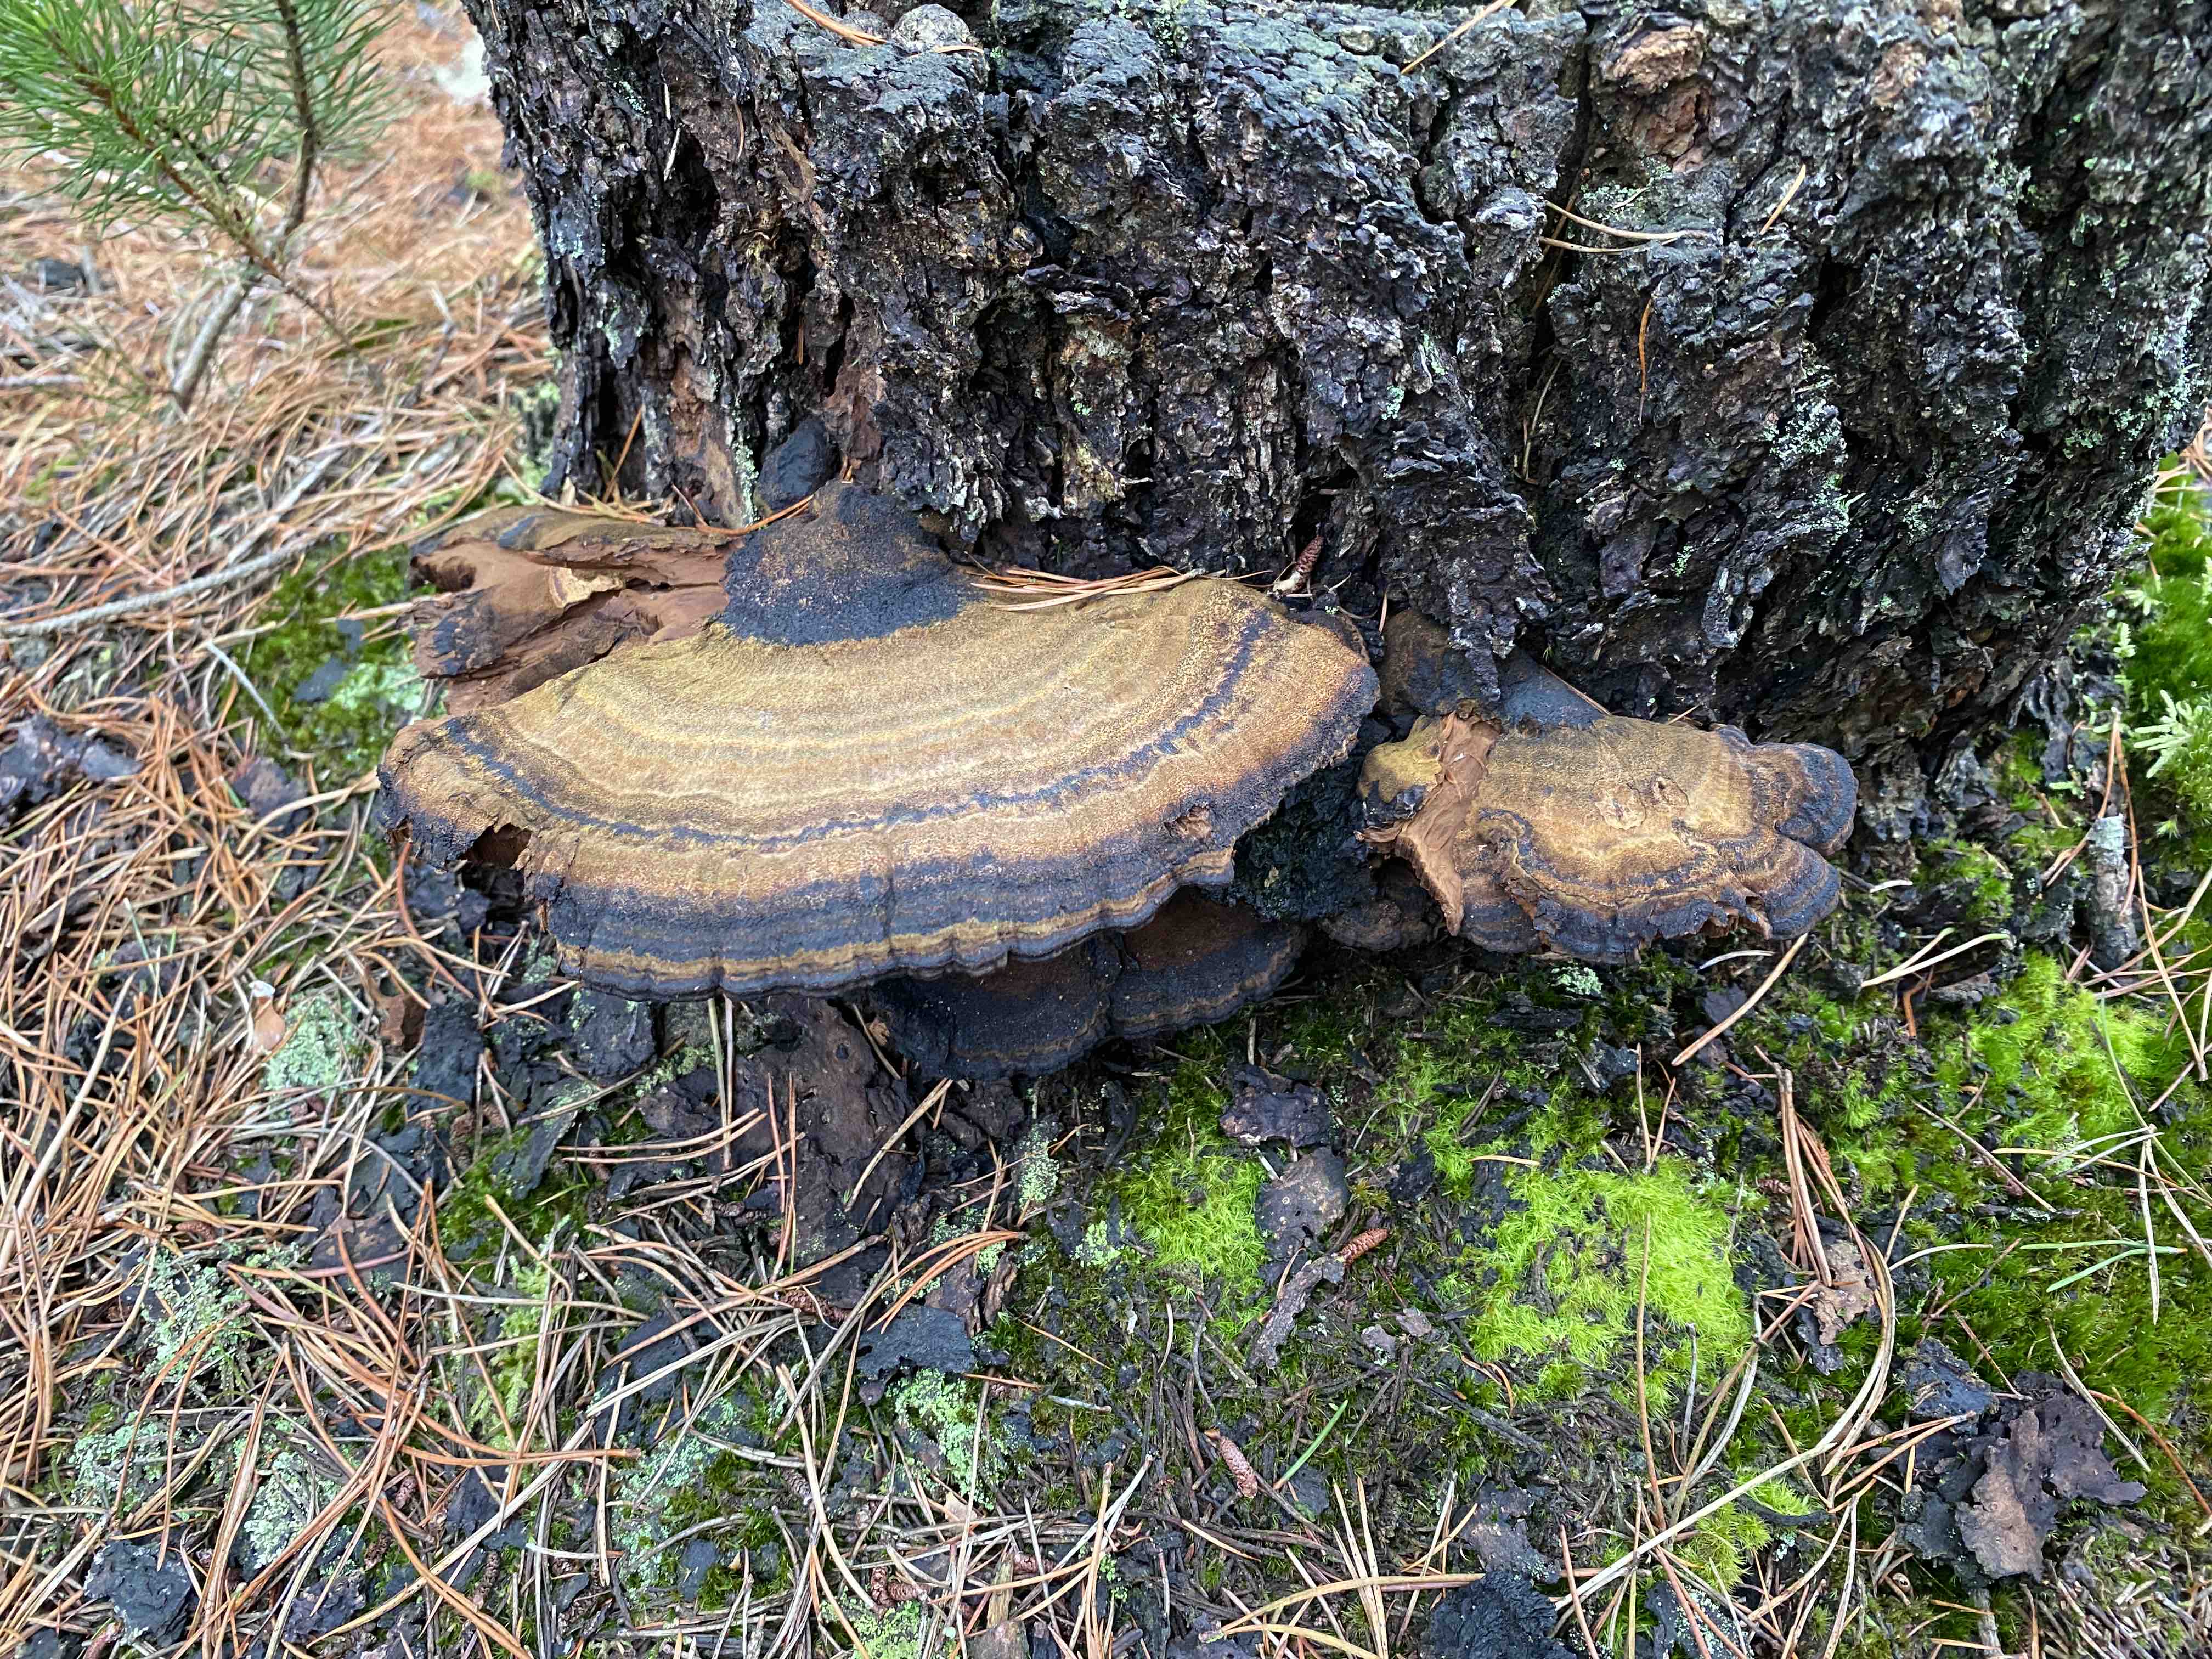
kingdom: Fungi
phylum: Basidiomycota
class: Agaricomycetes
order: Polyporales
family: Ischnodermataceae
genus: Ischnoderma
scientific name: Ischnoderma benzoinum
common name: gran-tjæreporesvamp
